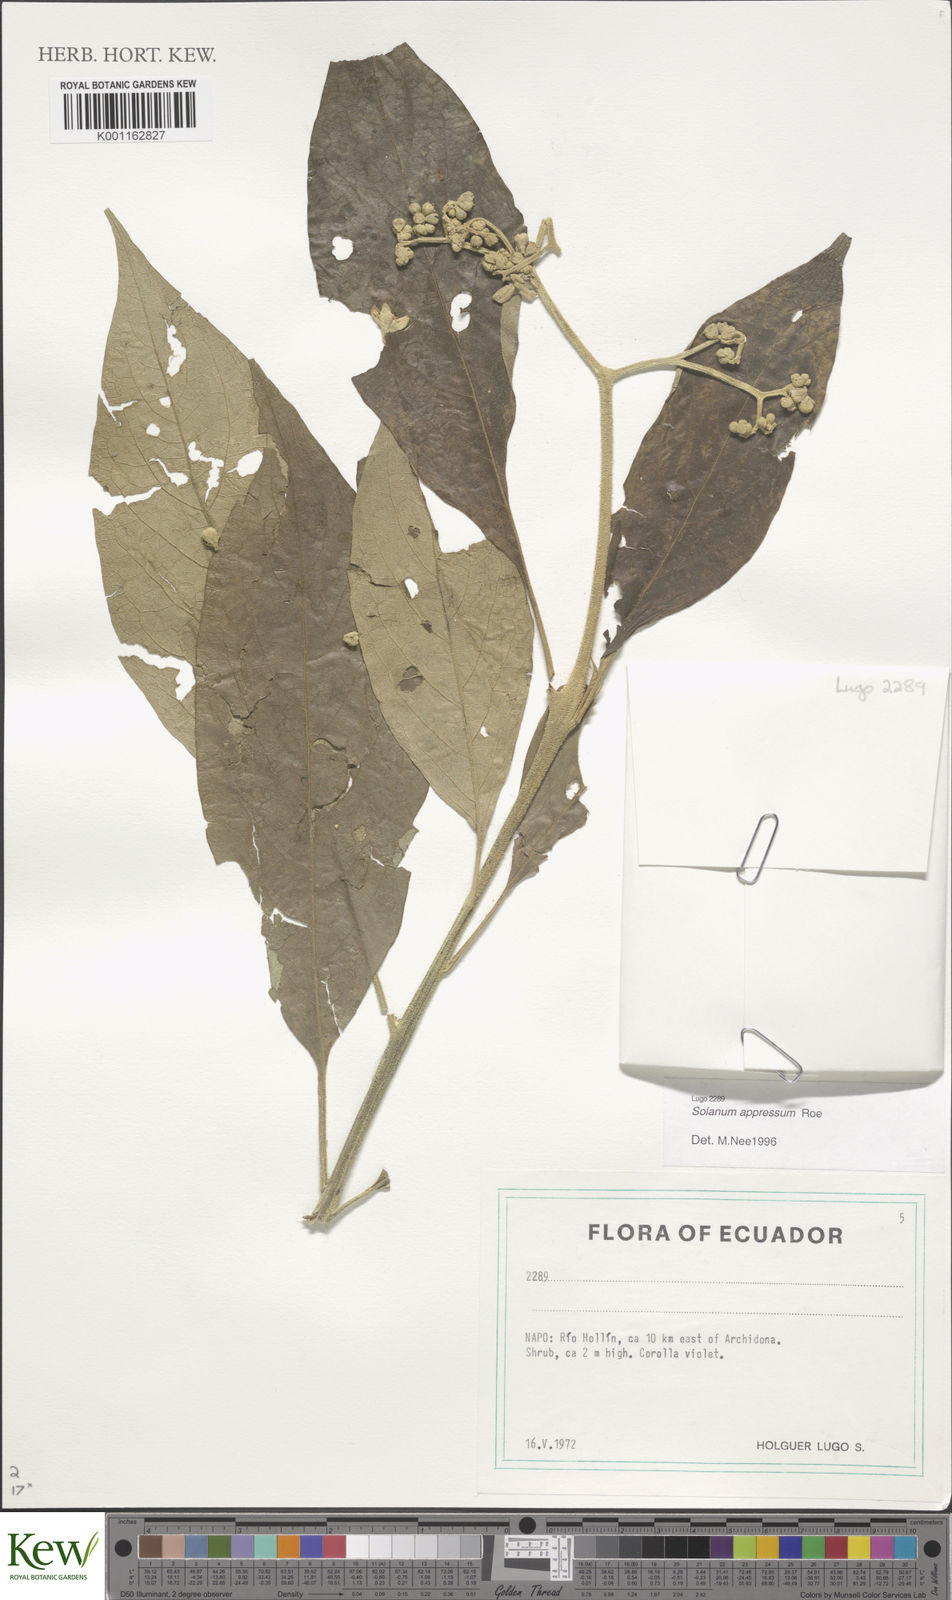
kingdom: Plantae
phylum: Tracheophyta
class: Magnoliopsida
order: Solanales
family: Solanaceae
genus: Solanum
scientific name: Solanum appressum
